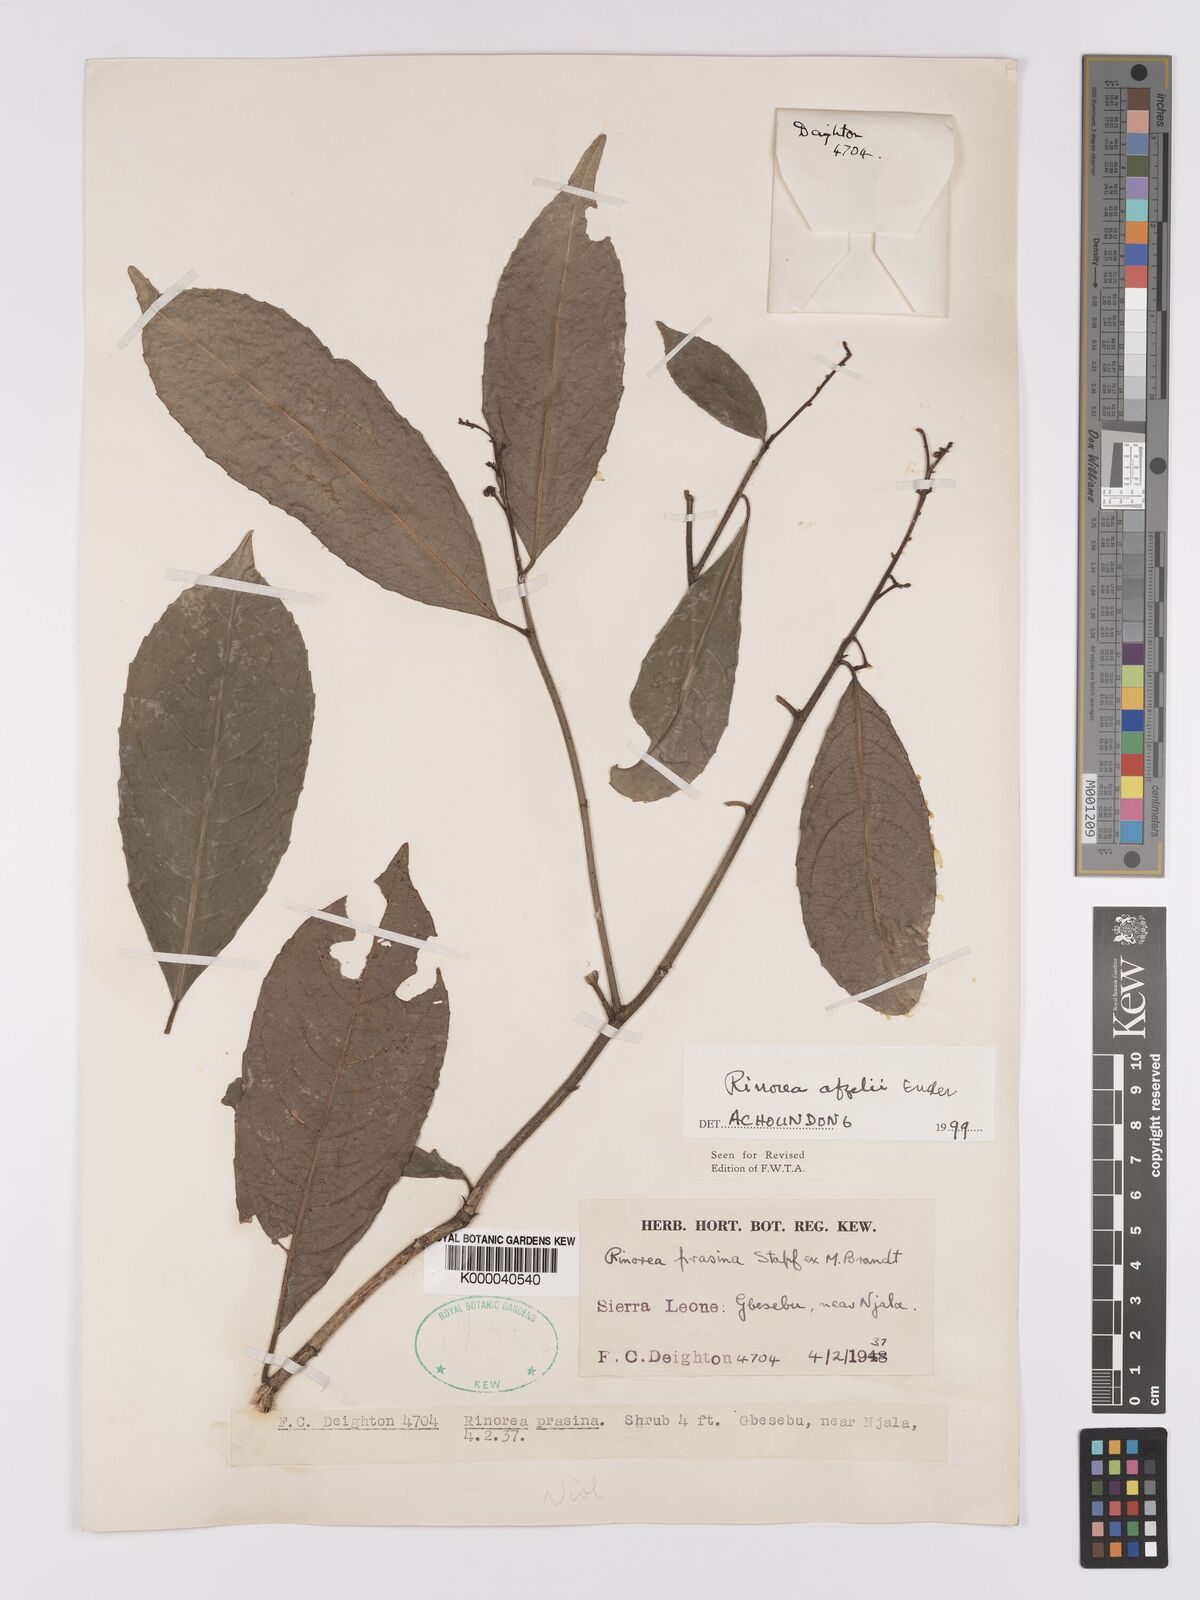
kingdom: Plantae
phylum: Tracheophyta
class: Magnoliopsida
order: Malpighiales
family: Violaceae
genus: Rinorea
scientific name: Rinorea afzelii
